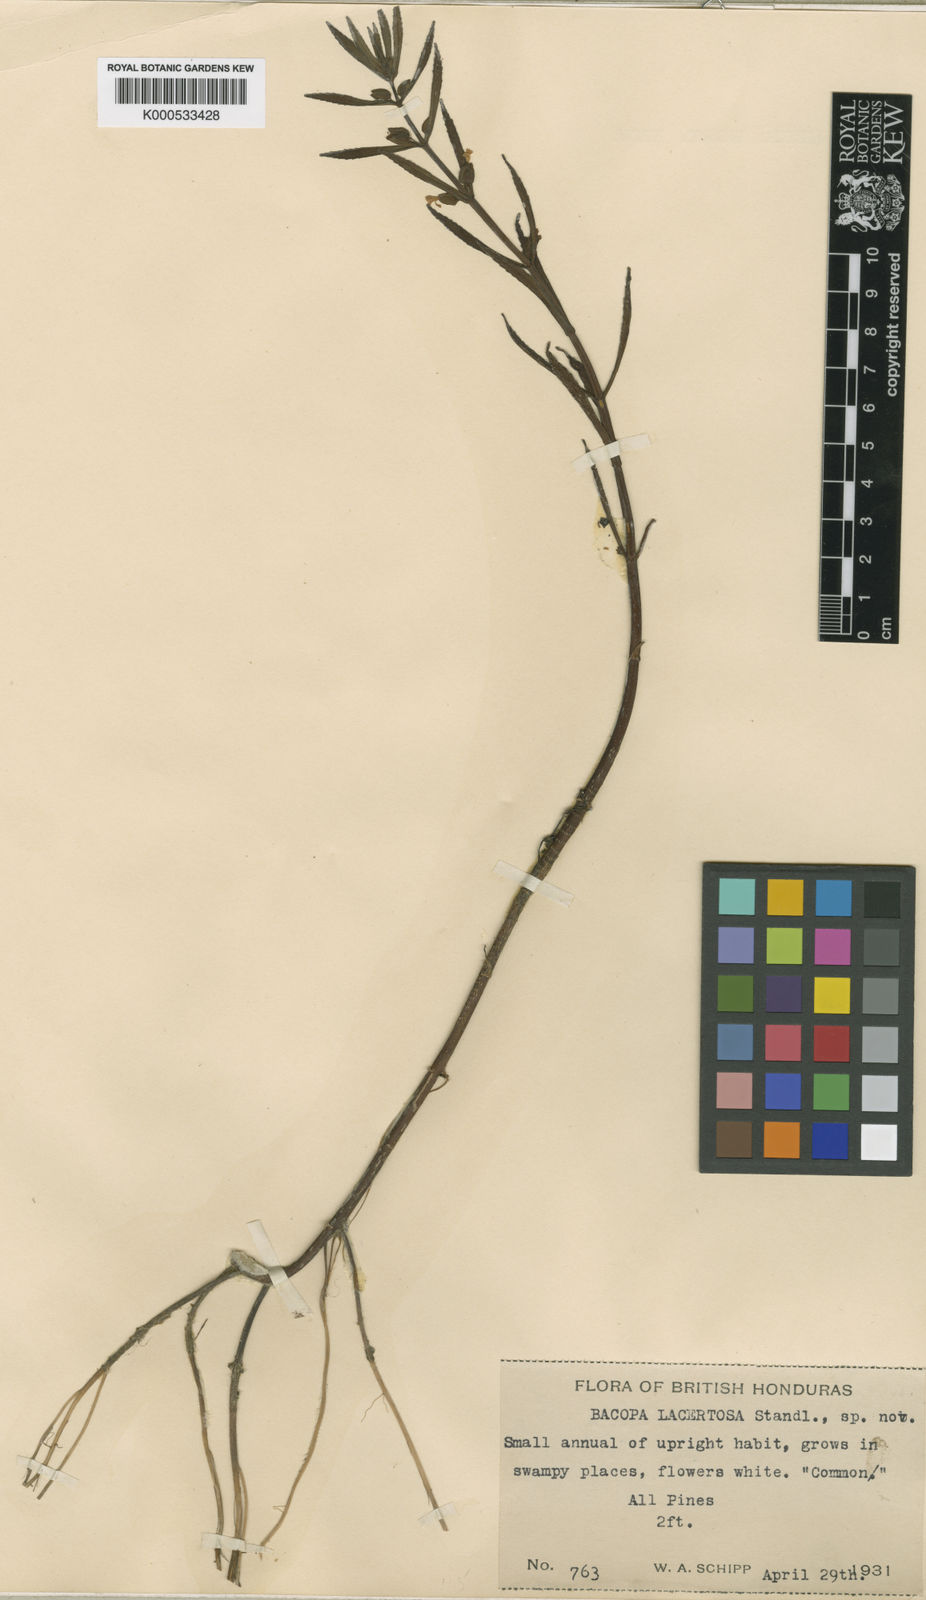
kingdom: Plantae
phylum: Tracheophyta
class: Magnoliopsida
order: Lamiales
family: Plantaginaceae
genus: Bacopa
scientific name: Bacopa lacertosa
